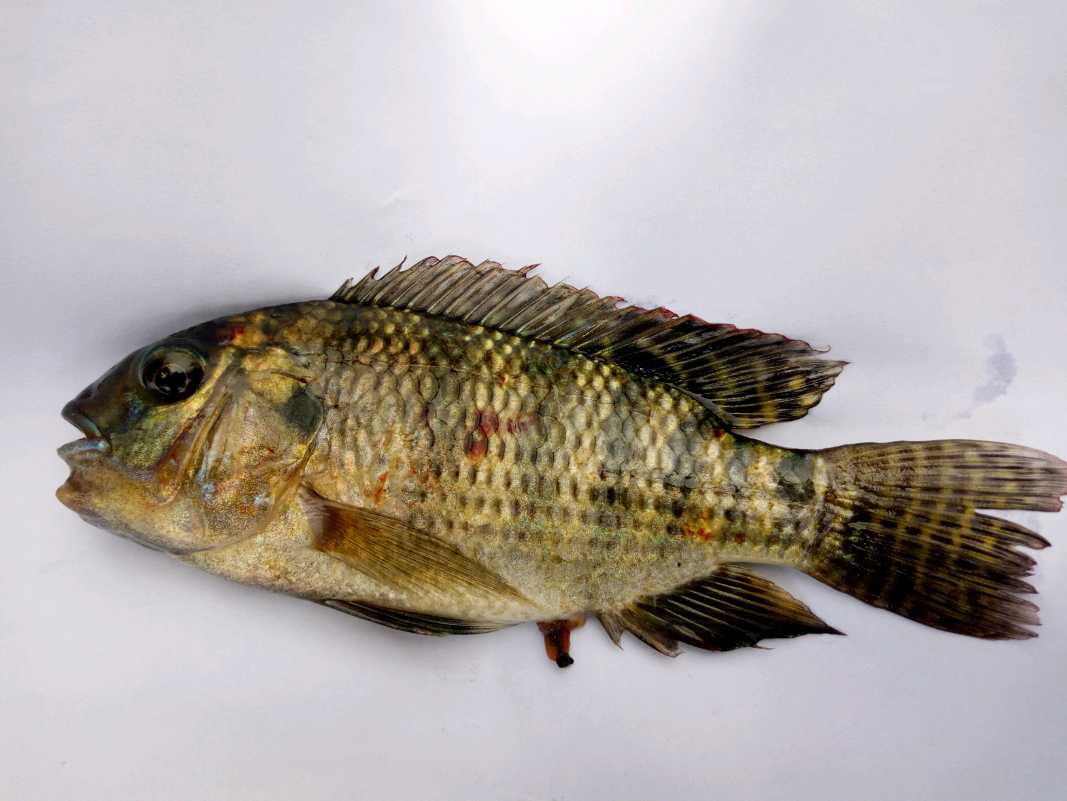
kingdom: Animalia
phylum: Chordata
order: Perciformes
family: Cichlidae
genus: Coptodon
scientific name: Coptodon zillii
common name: Redbelly tilapia
